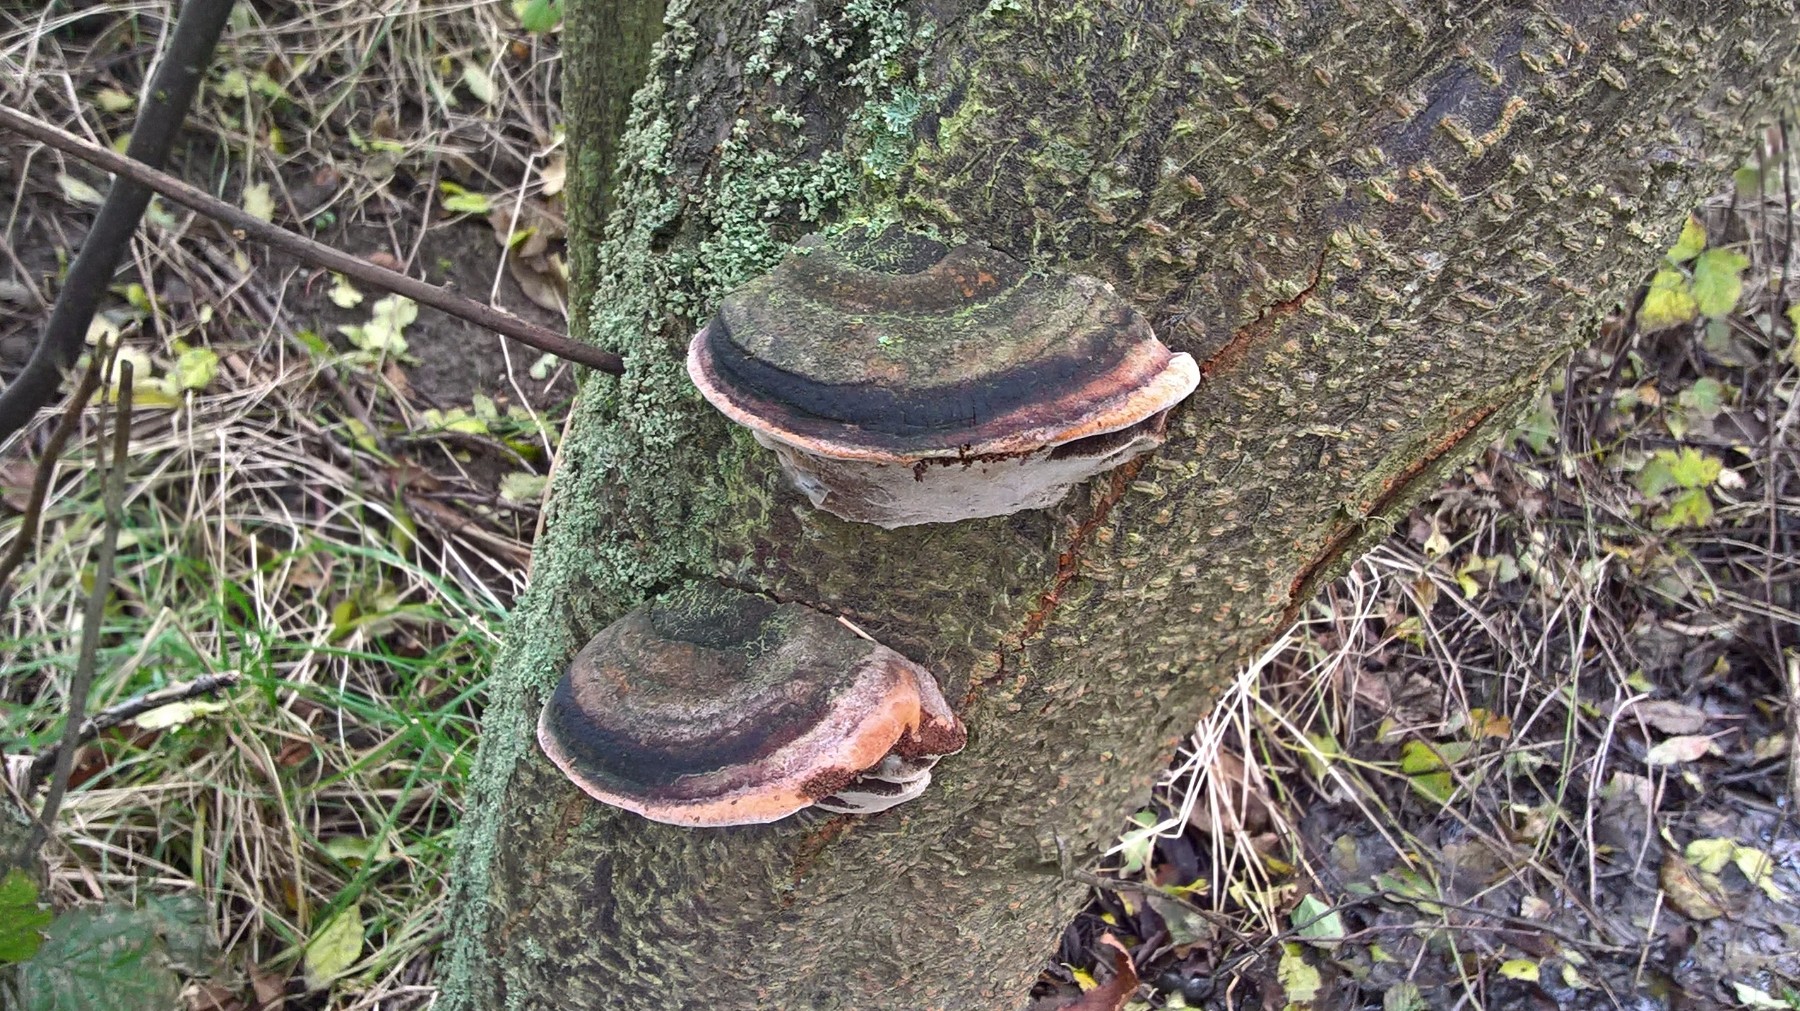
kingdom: Fungi
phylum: Basidiomycota
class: Agaricomycetes
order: Hymenochaetales
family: Hymenochaetaceae
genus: Phellinus
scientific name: Phellinus pomaceus
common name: blomme-ildporesvamp
